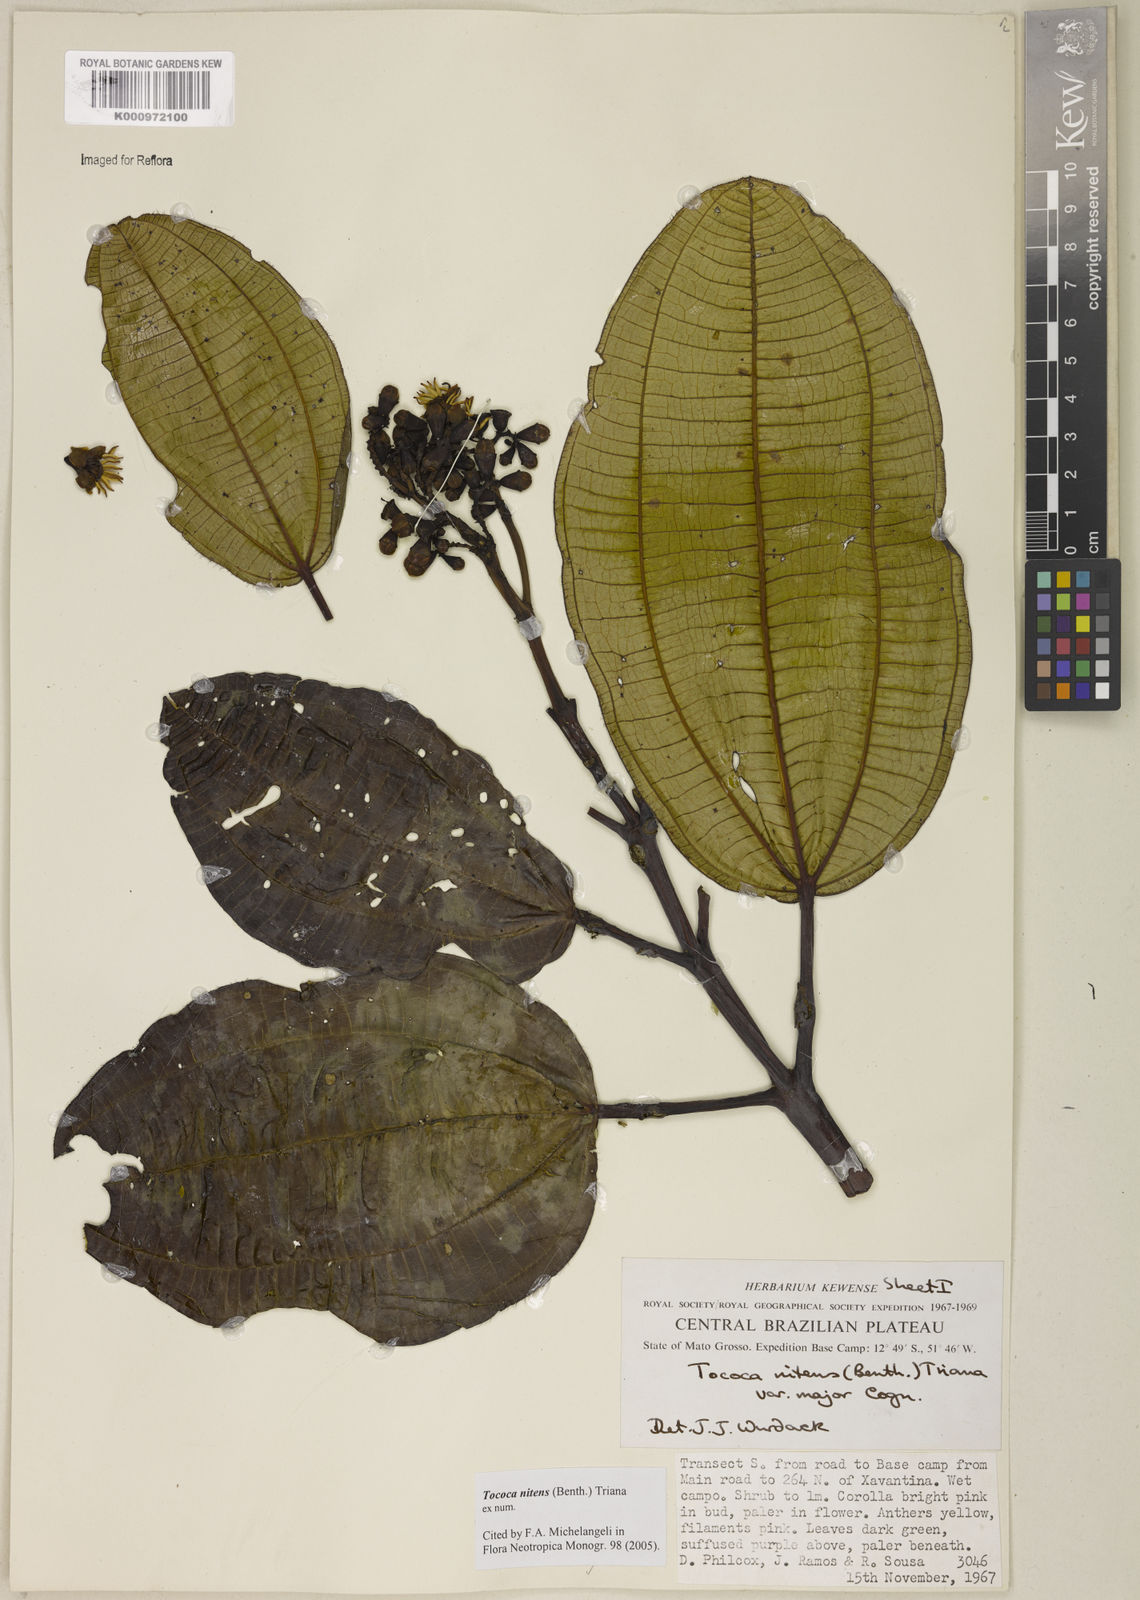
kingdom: Plantae
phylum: Tracheophyta
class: Magnoliopsida
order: Myrtales
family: Melastomataceae
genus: Miconia
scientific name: Miconia nitens
